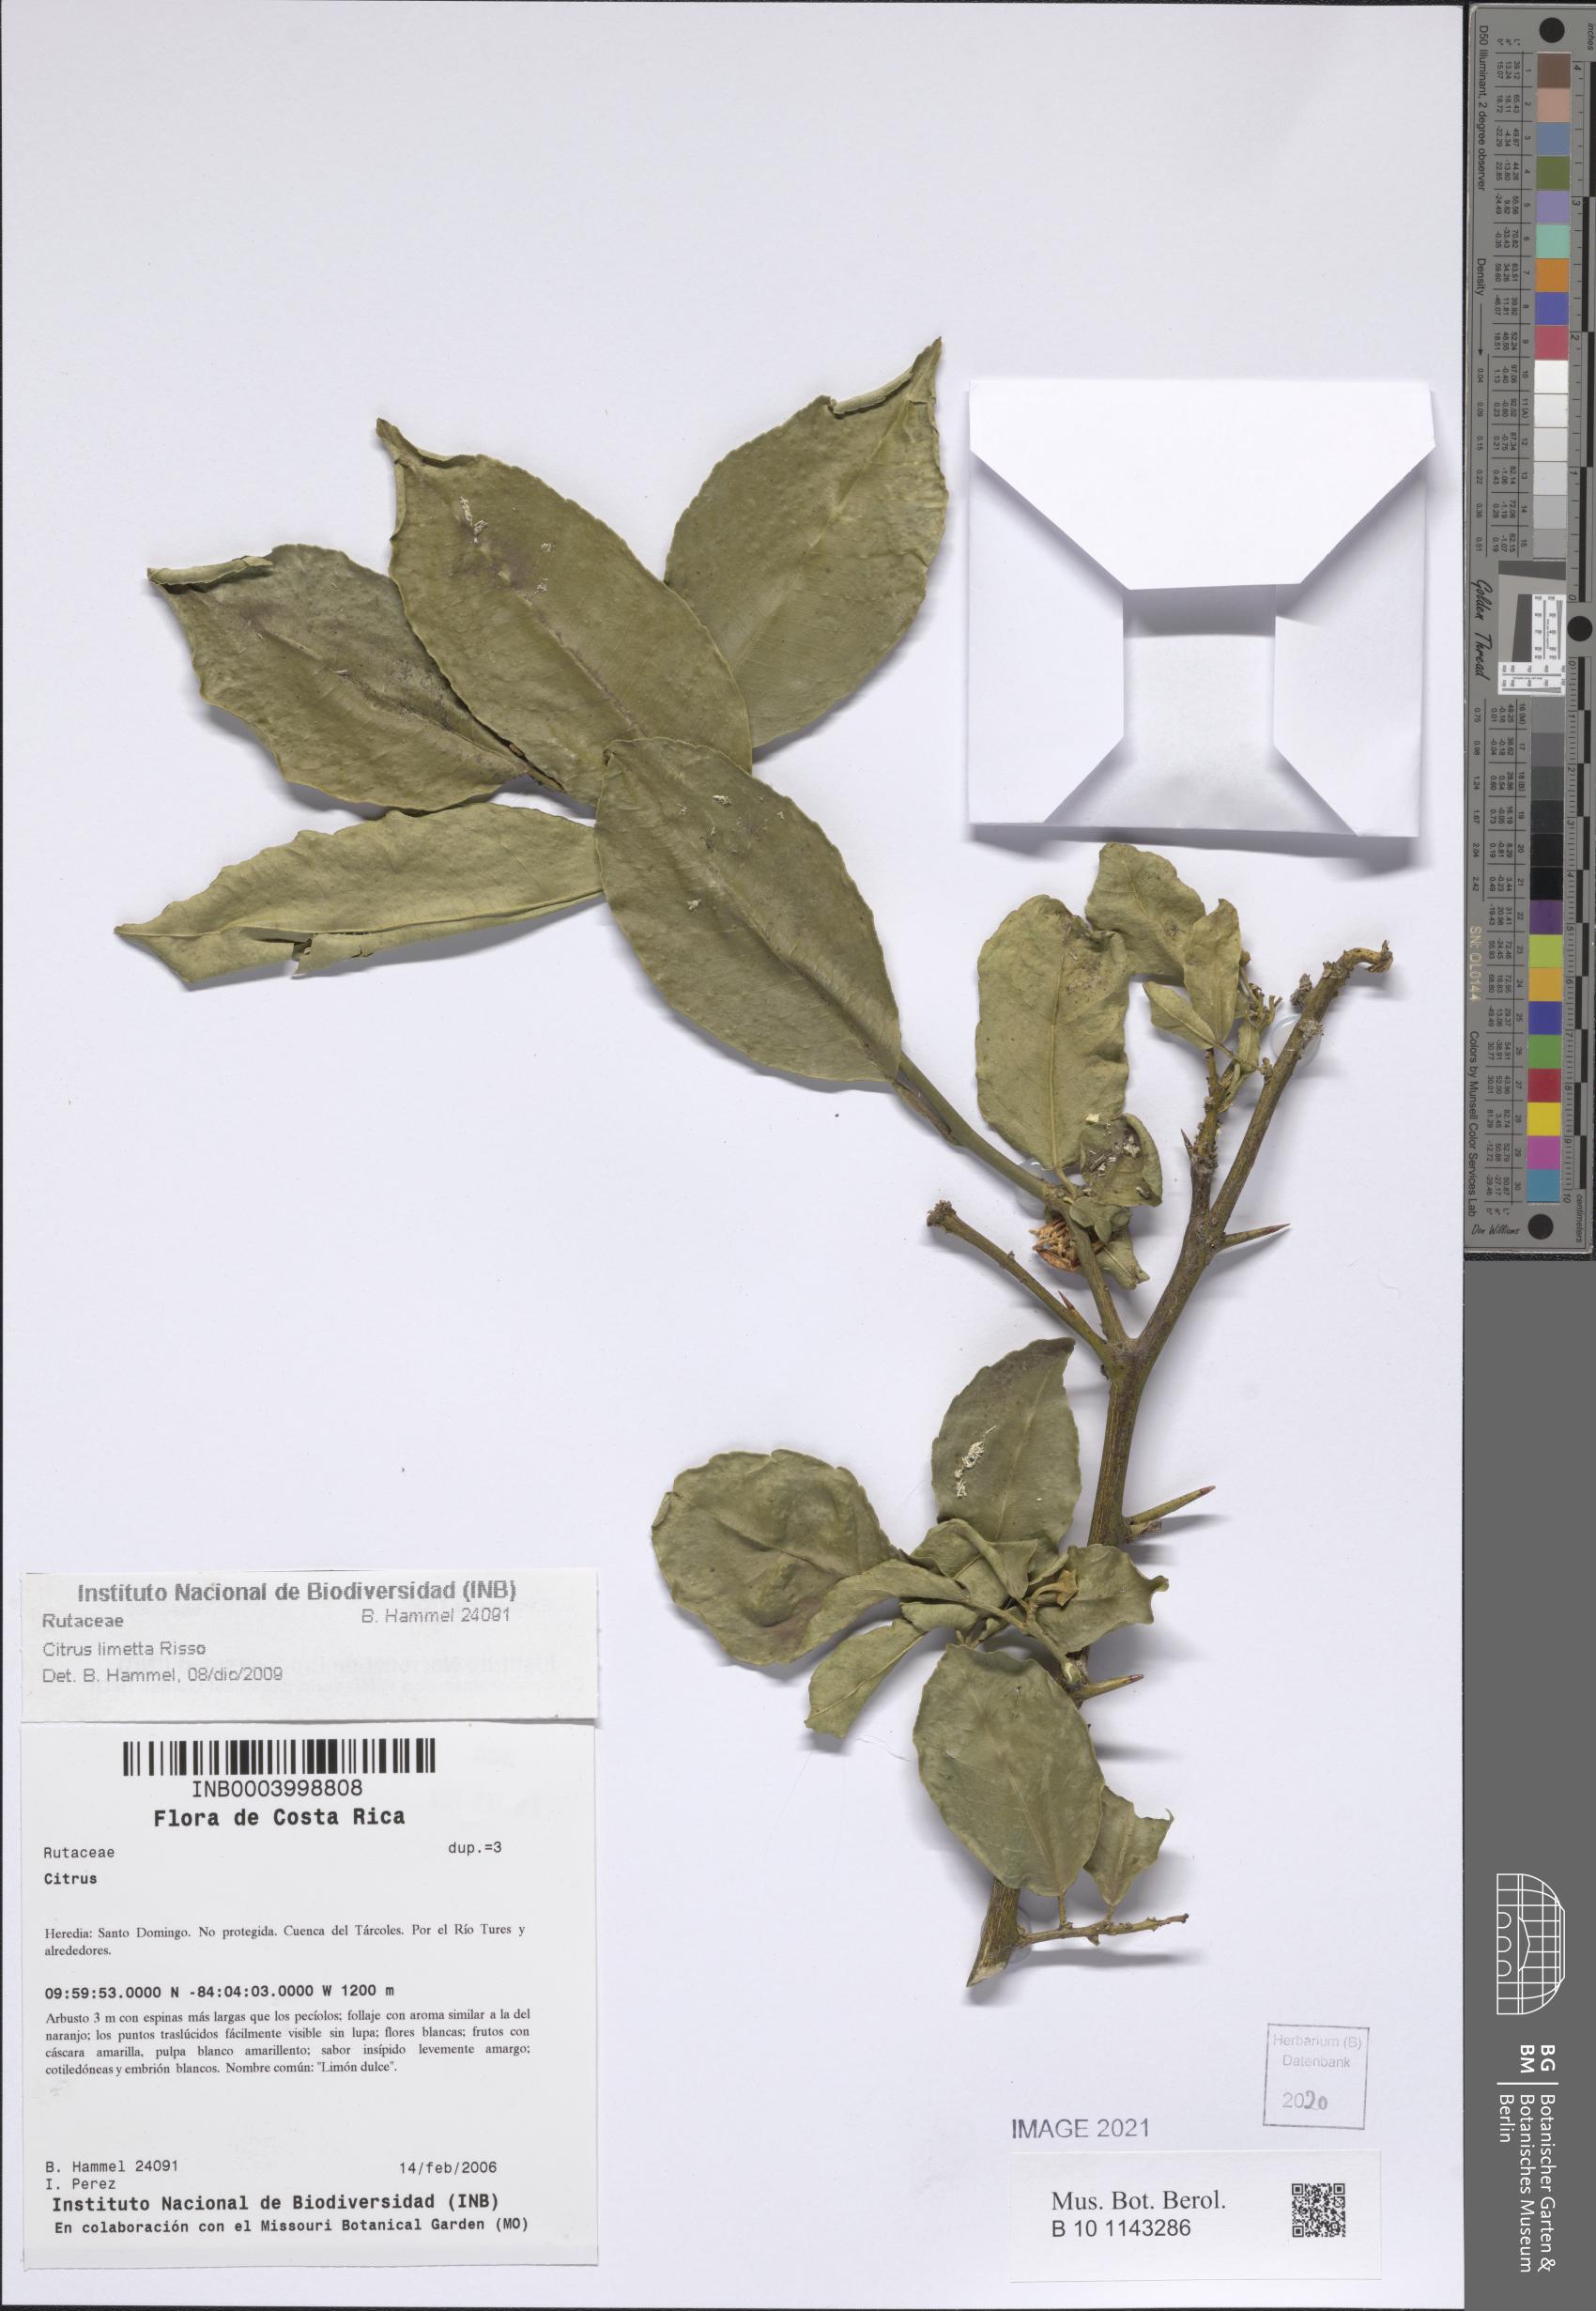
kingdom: Plantae
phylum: Tracheophyta
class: Magnoliopsida
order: Sapindales
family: Rutaceae
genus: Citrus
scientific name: Citrus
